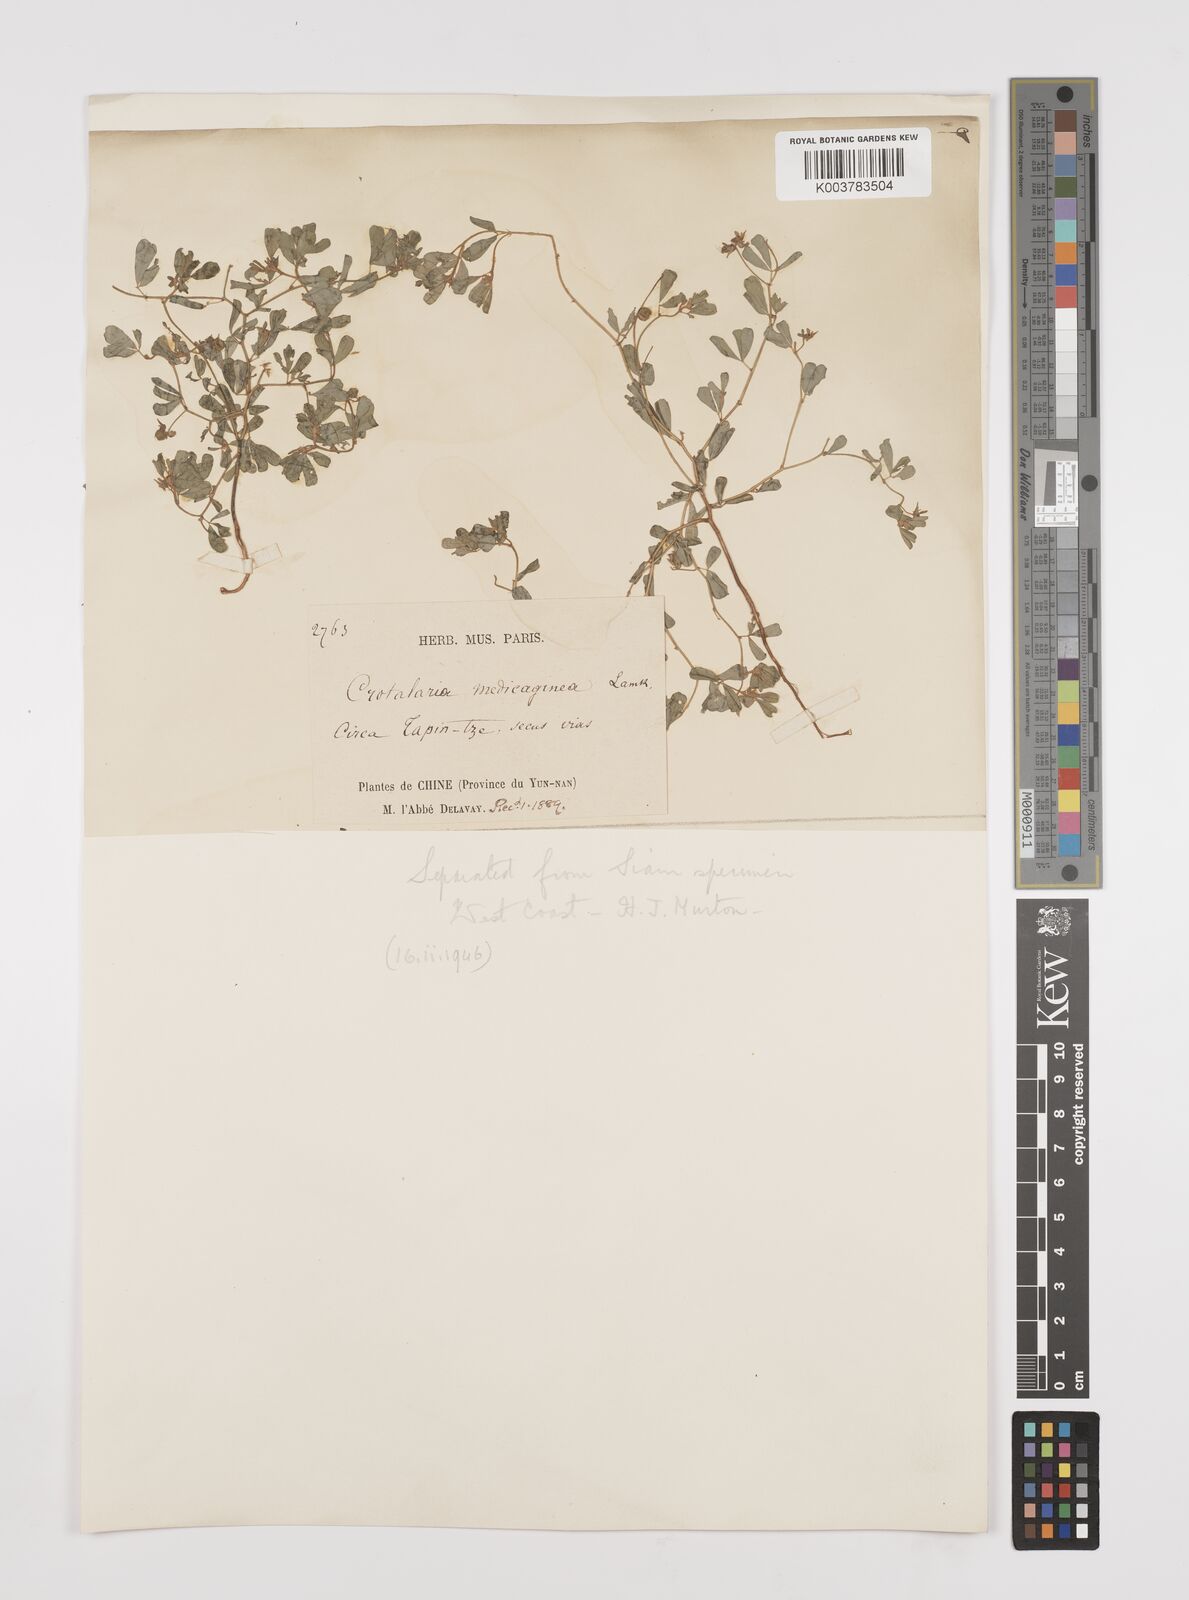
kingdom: Plantae
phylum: Tracheophyta
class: Magnoliopsida
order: Fabales
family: Fabaceae
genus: Crotalaria
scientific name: Crotalaria medicaginea
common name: Trefoil rattlepod
